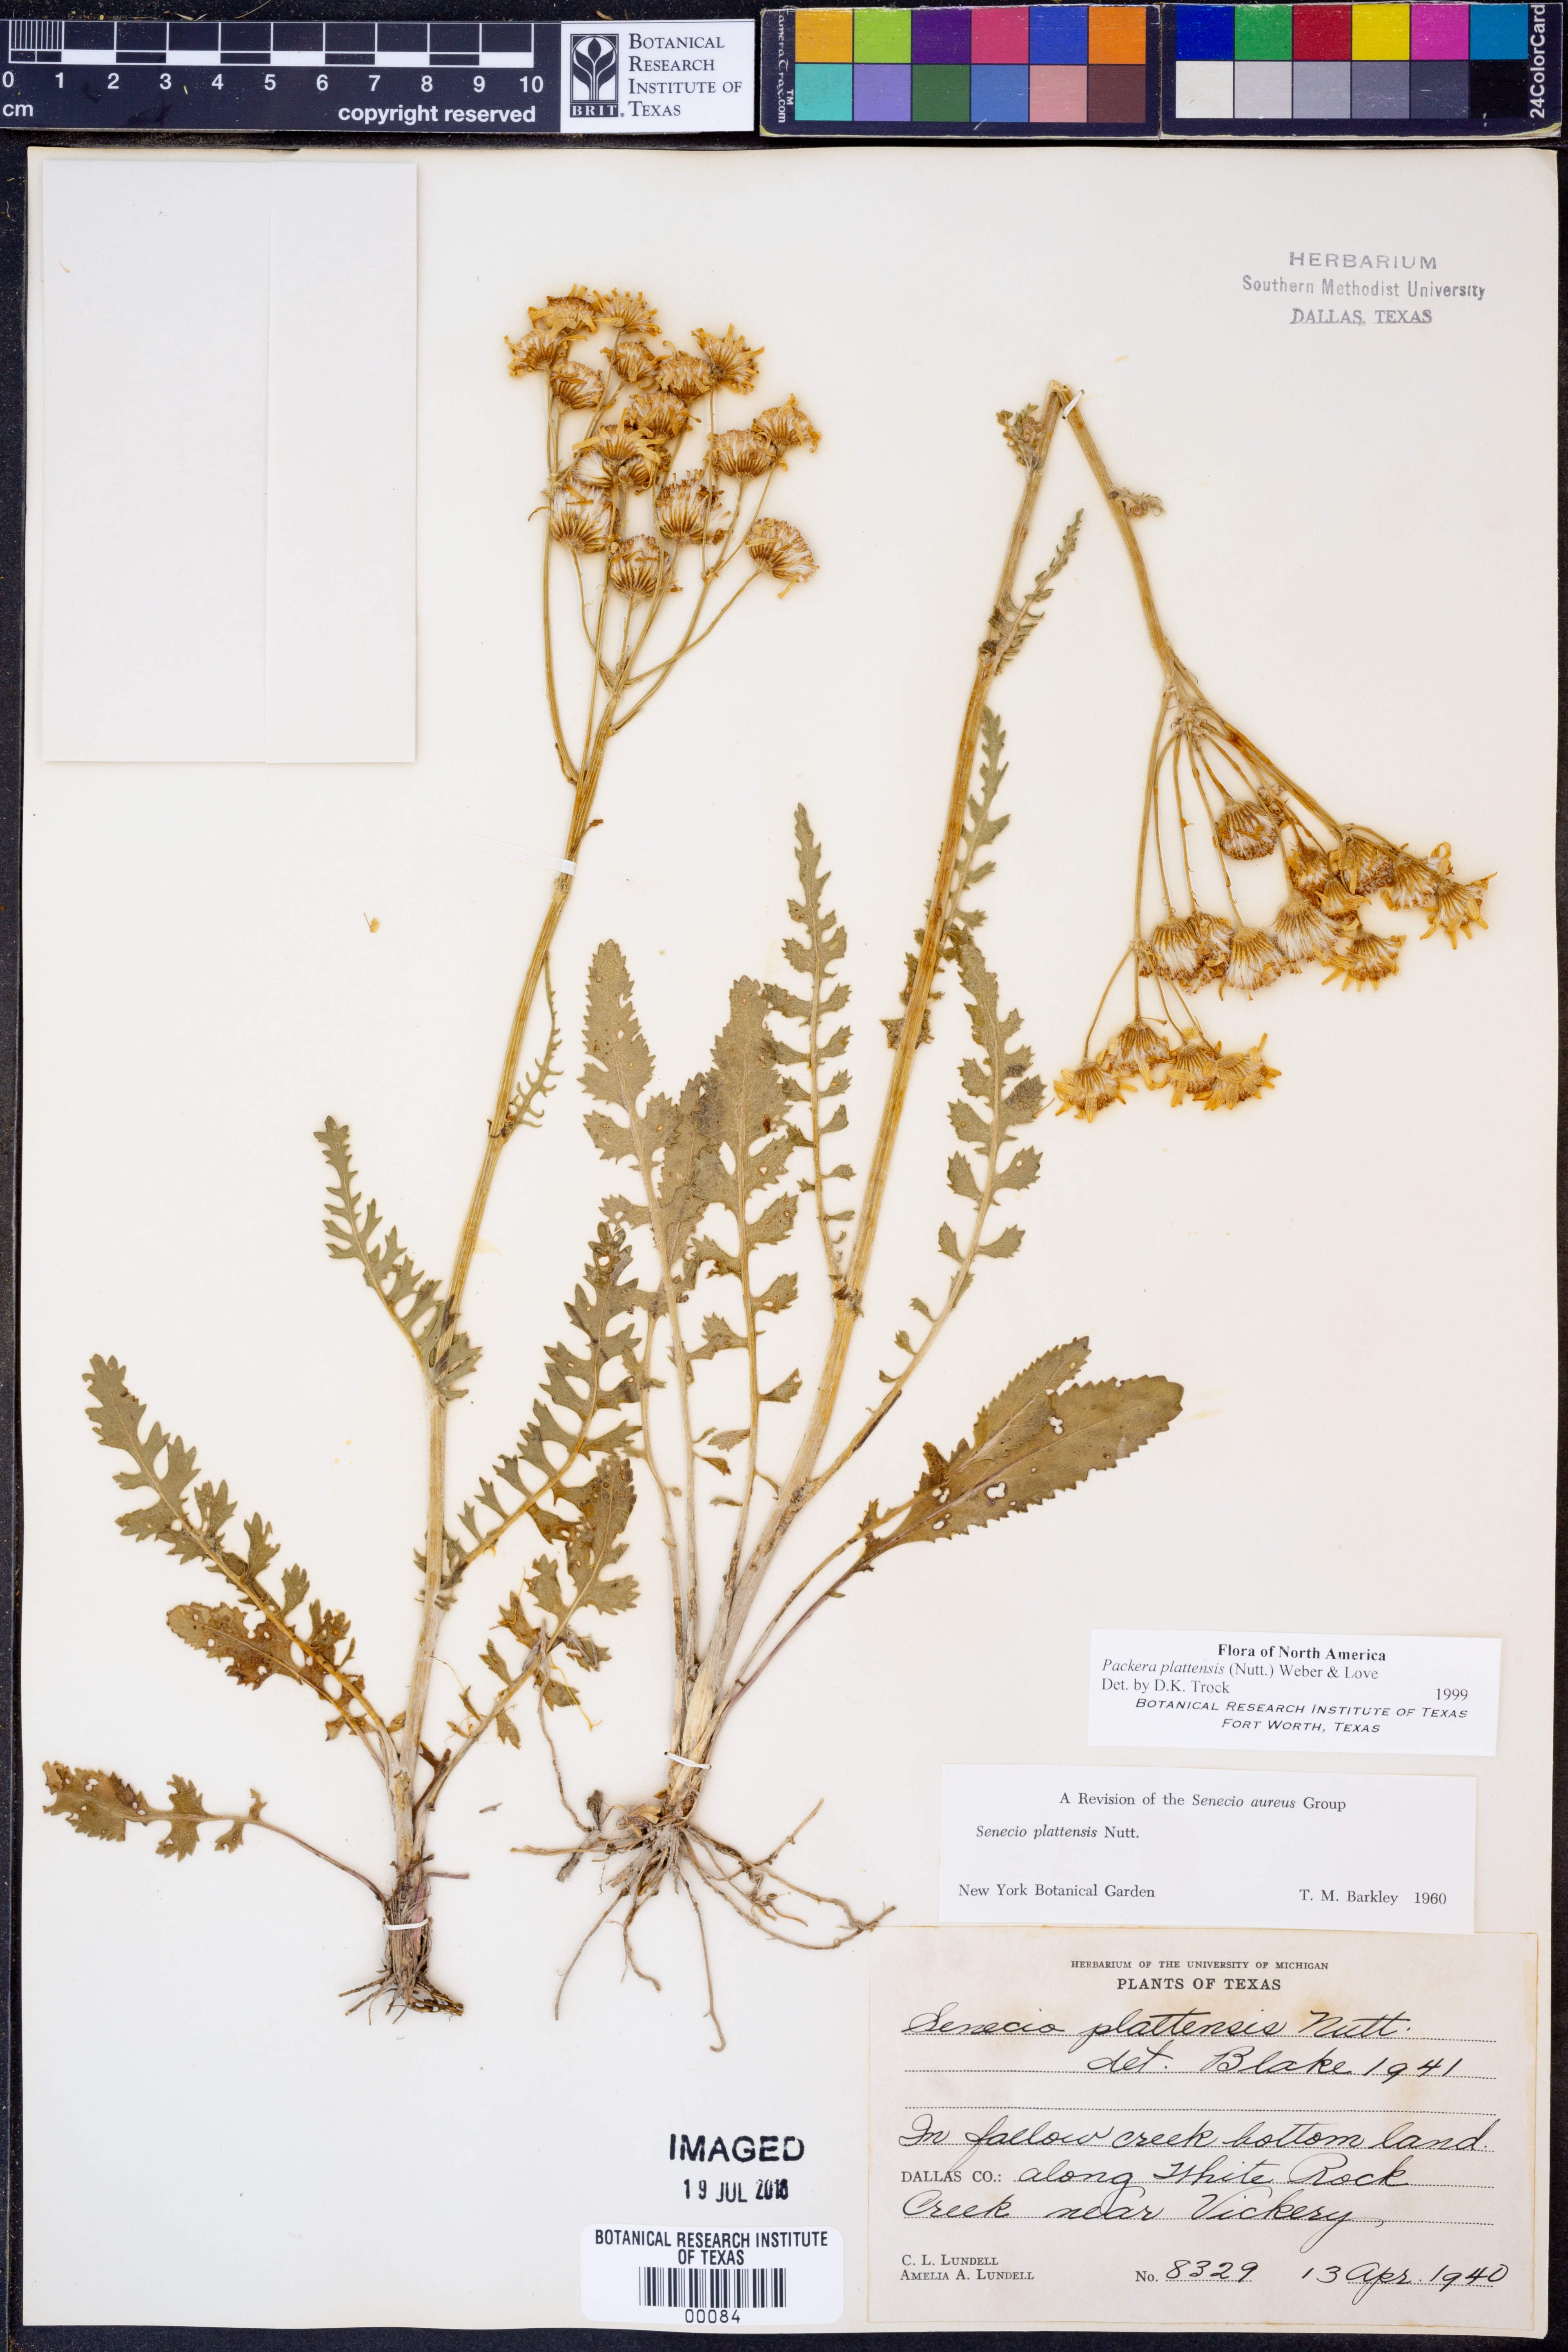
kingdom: Plantae
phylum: Tracheophyta
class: Magnoliopsida
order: Asterales
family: Asteraceae
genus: Packera
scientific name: Packera plattensis
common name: Prairie groundsel
